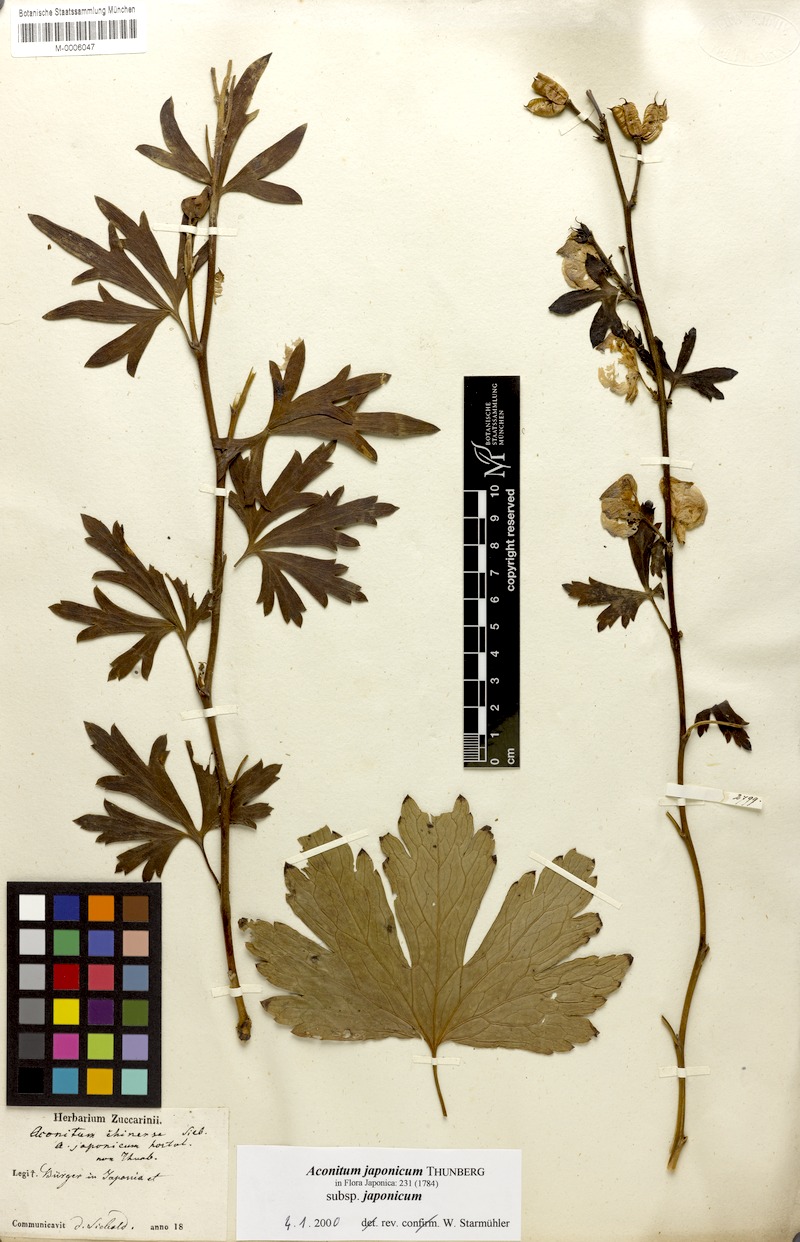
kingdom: Plantae
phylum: Tracheophyta
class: Magnoliopsida
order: Ranunculales
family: Ranunculaceae
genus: Aconitum
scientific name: Aconitum fischeri
